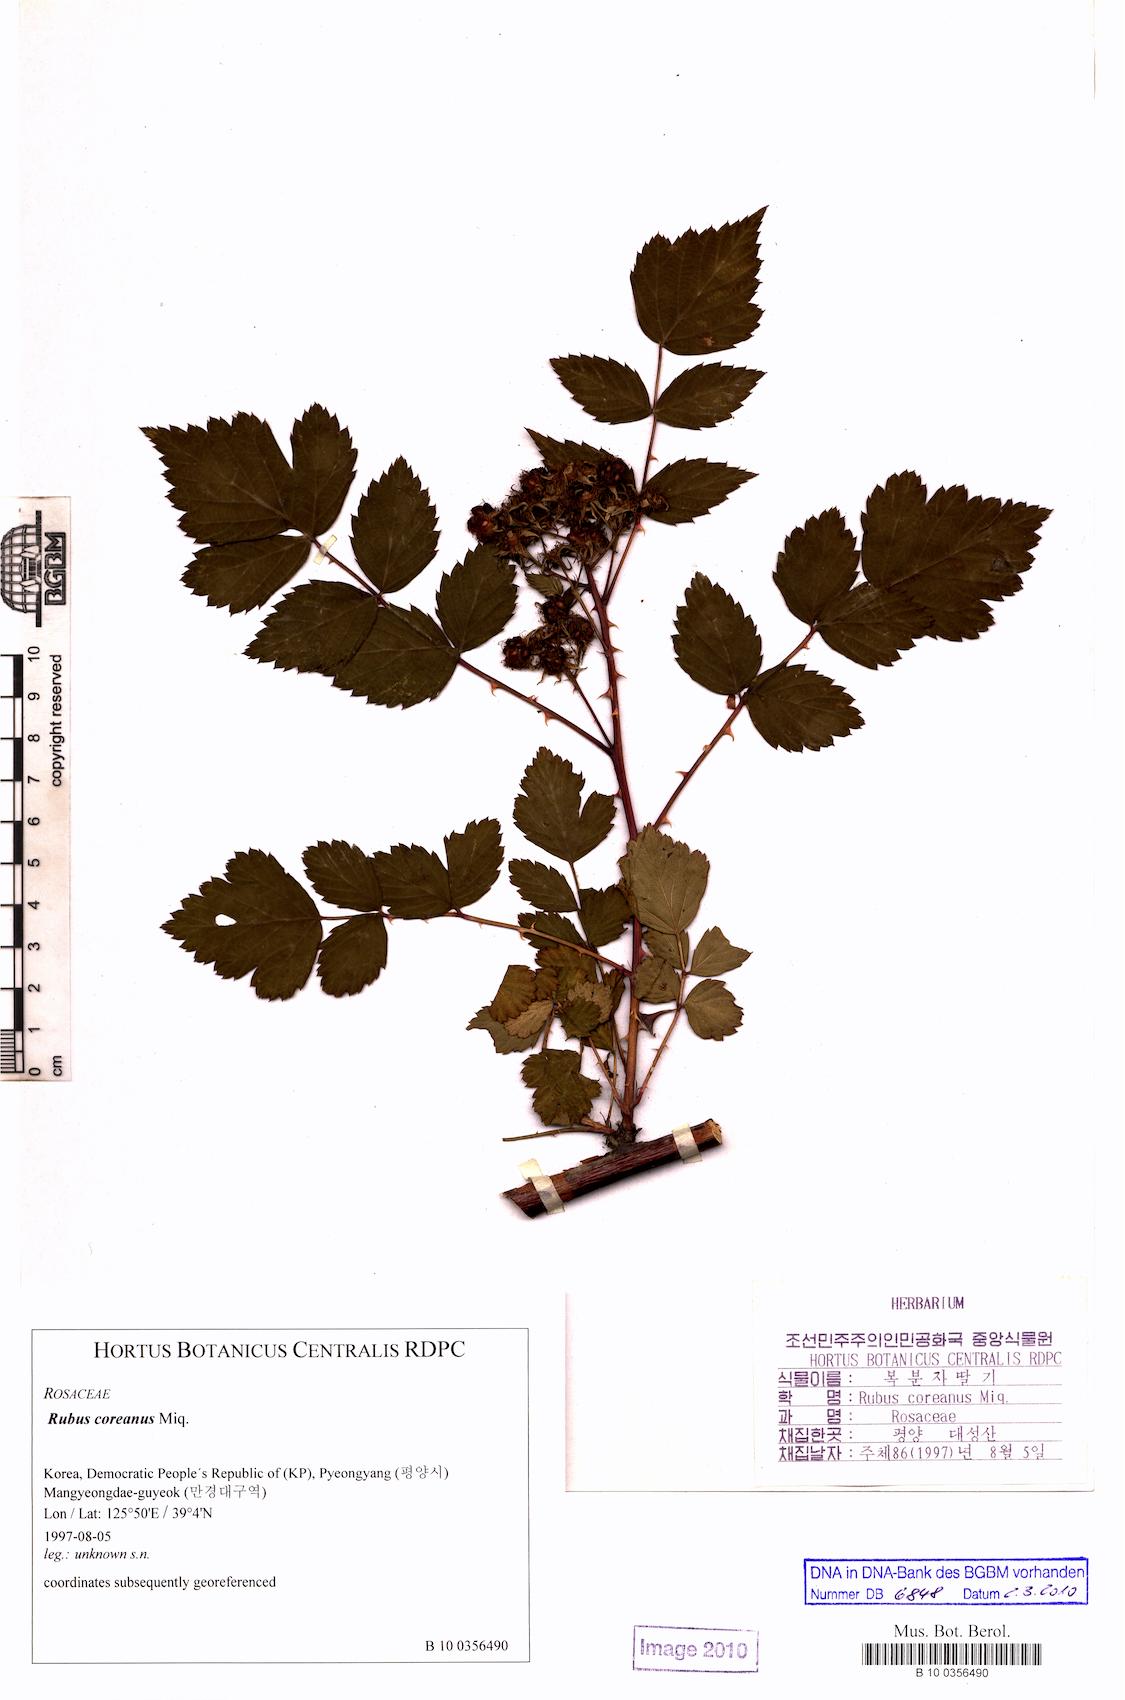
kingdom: Plantae
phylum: Tracheophyta
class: Magnoliopsida
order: Rosales
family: Rosaceae
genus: Rubus
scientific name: Rubus coreanus
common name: Korean bramble
